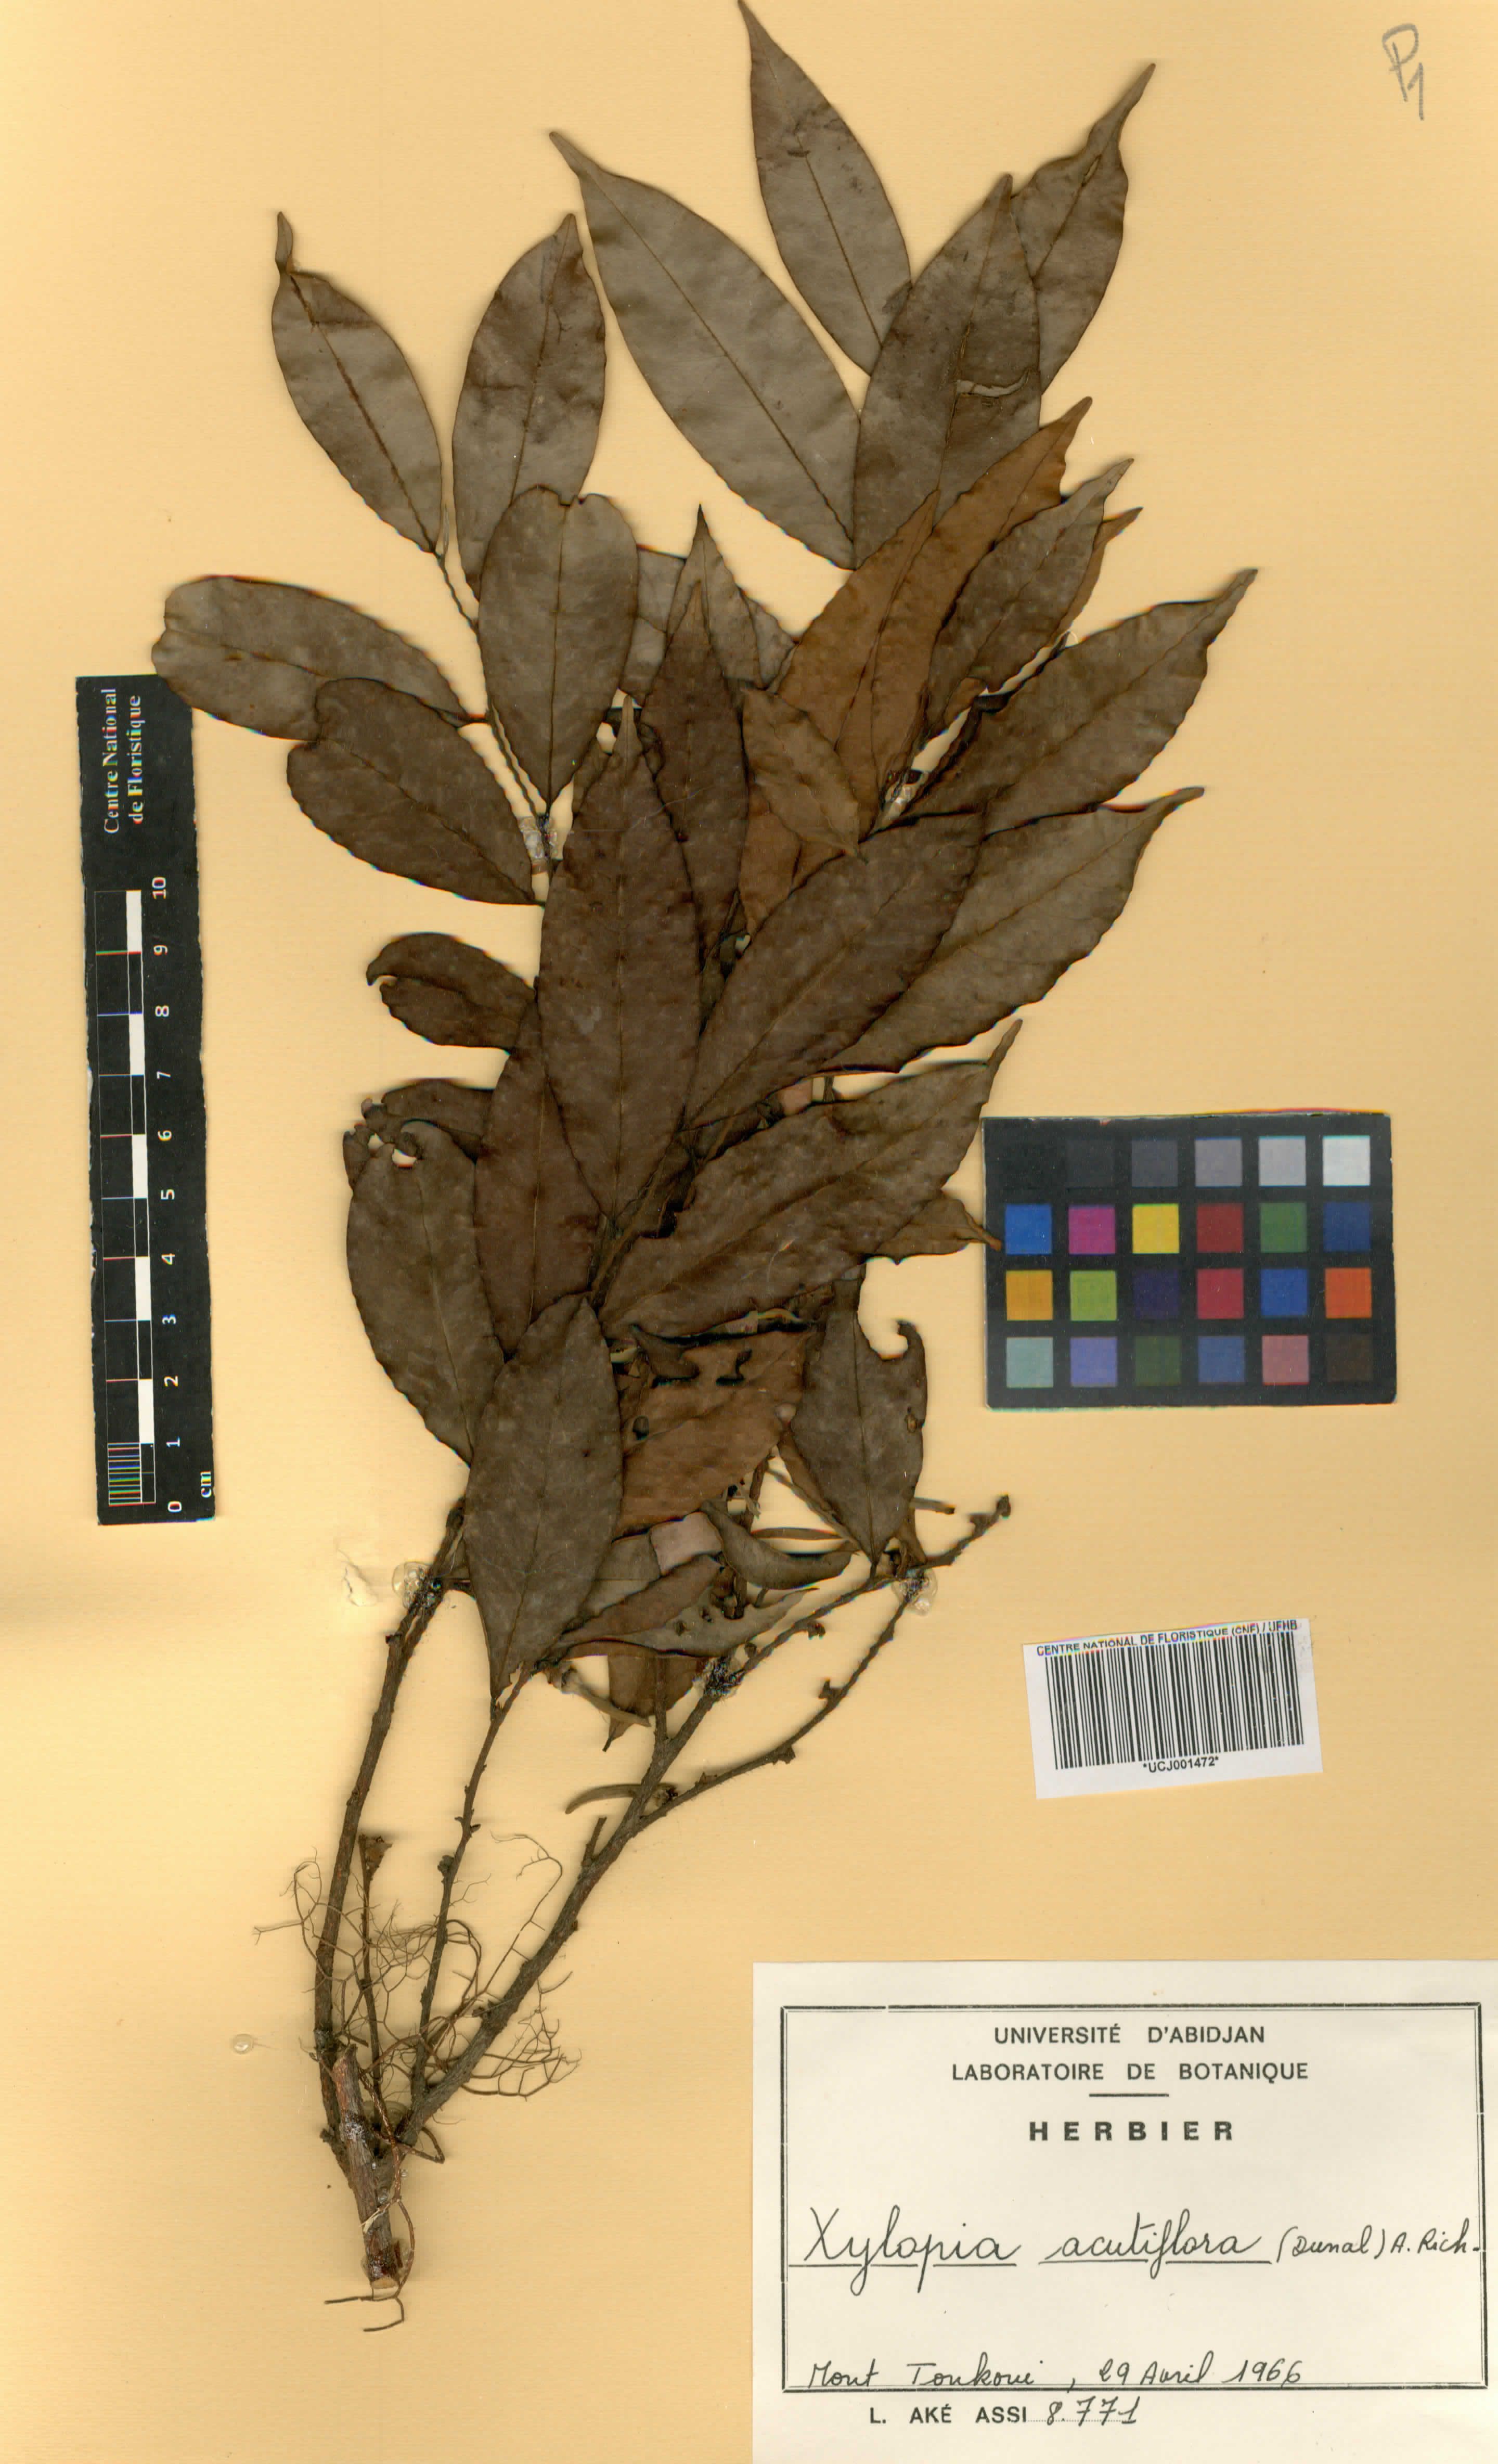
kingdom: Plantae
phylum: Tracheophyta
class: Magnoliopsida
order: Magnoliales
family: Annonaceae
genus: Xylopia
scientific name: Xylopia acutiflora
